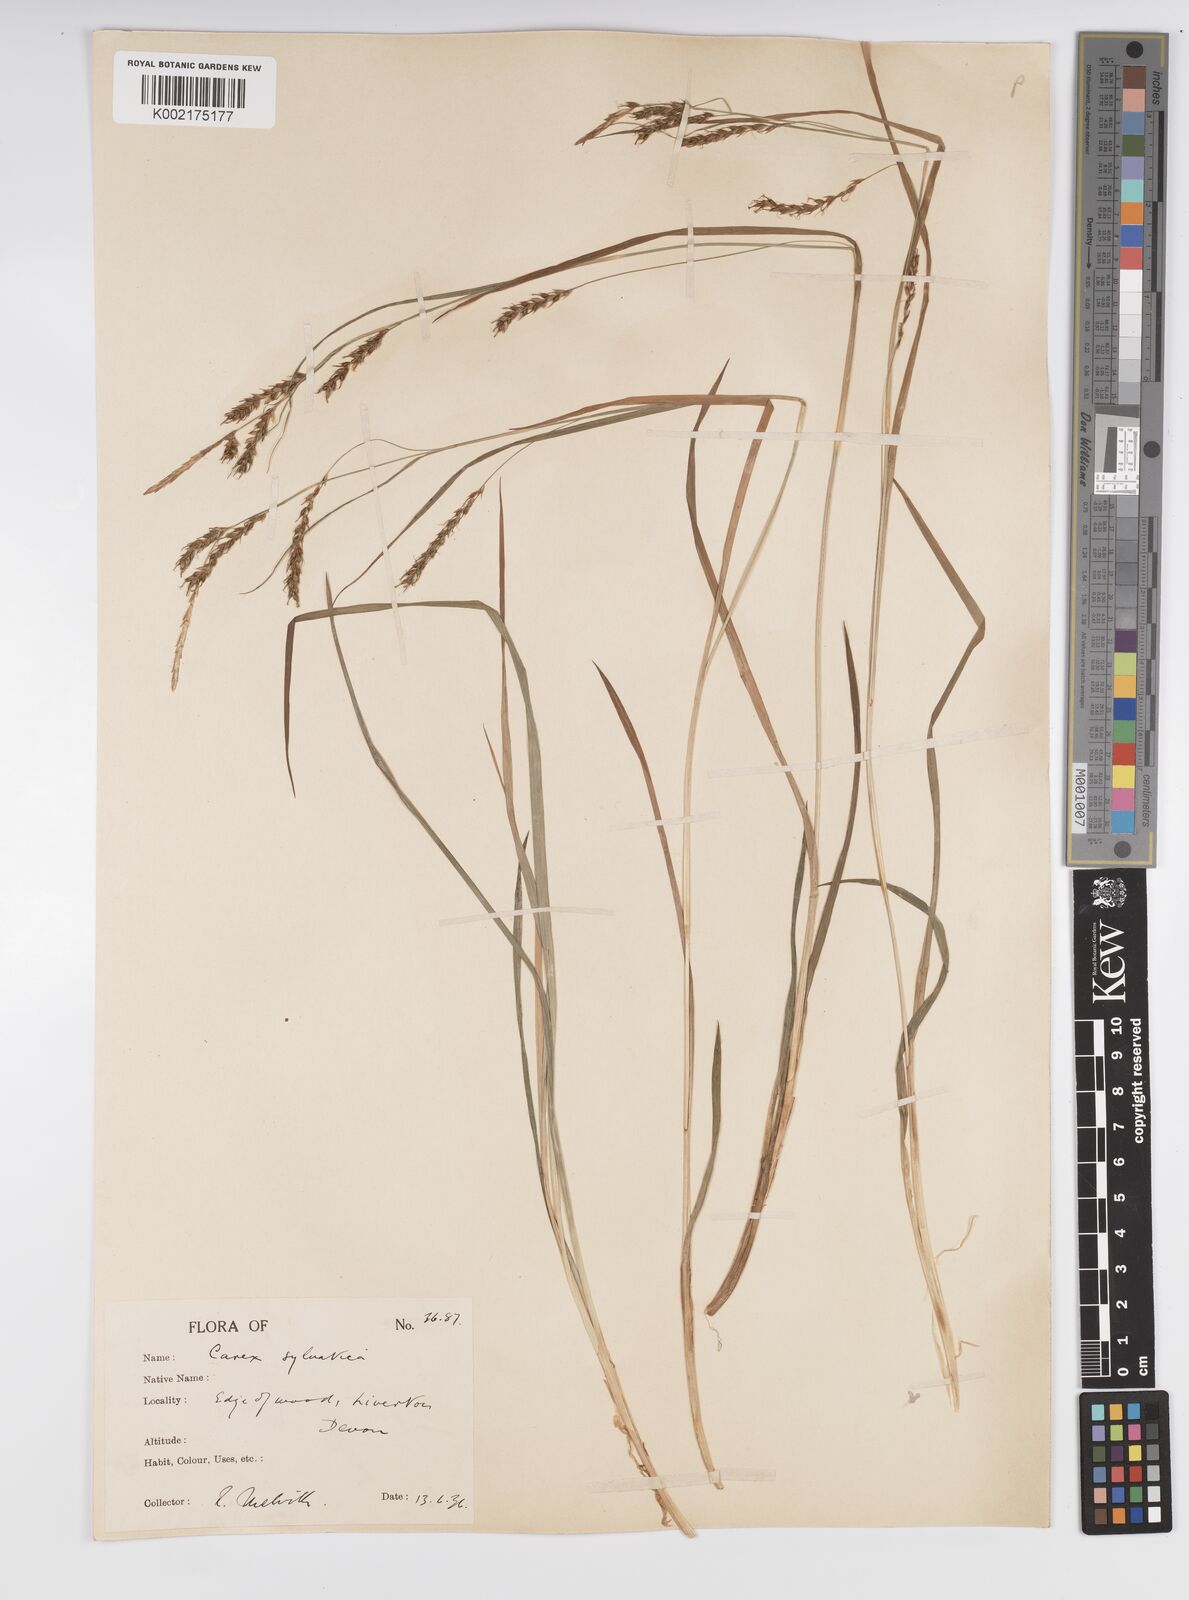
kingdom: Plantae
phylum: Tracheophyta
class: Liliopsida
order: Poales
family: Cyperaceae
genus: Carex
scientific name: Carex sylvatica
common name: Wood-sedge
